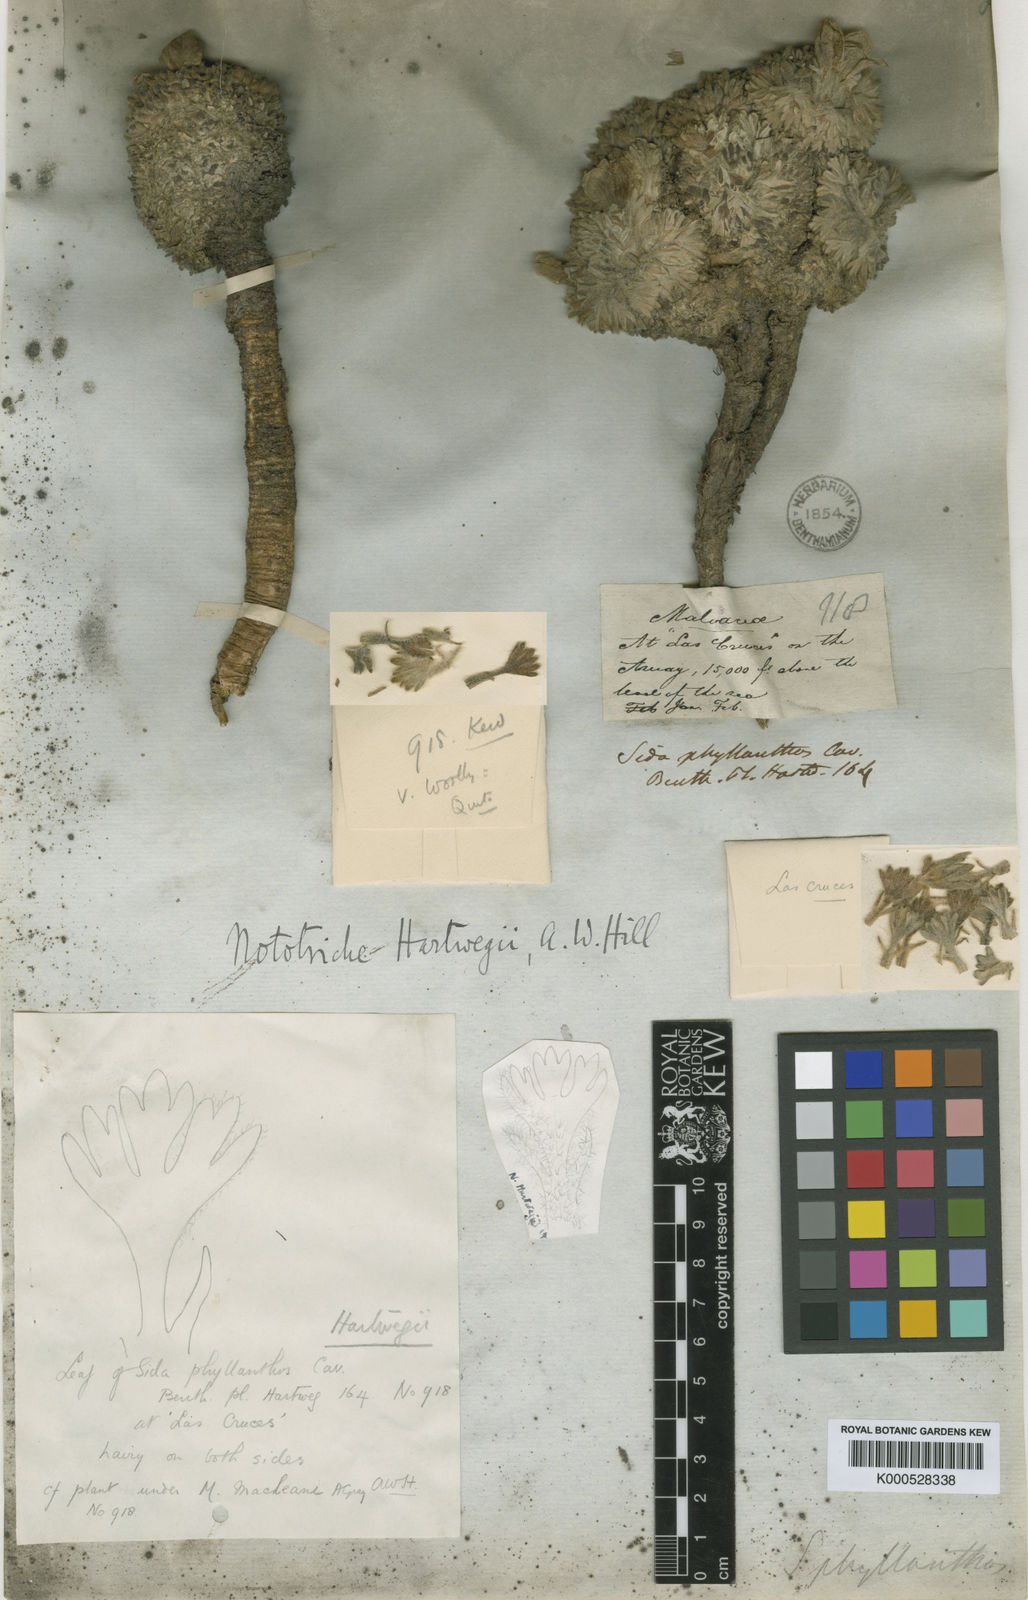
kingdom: Plantae
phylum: Tracheophyta
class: Magnoliopsida
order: Malvales
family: Malvaceae
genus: Nototriche
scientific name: Nototriche jamesonii
